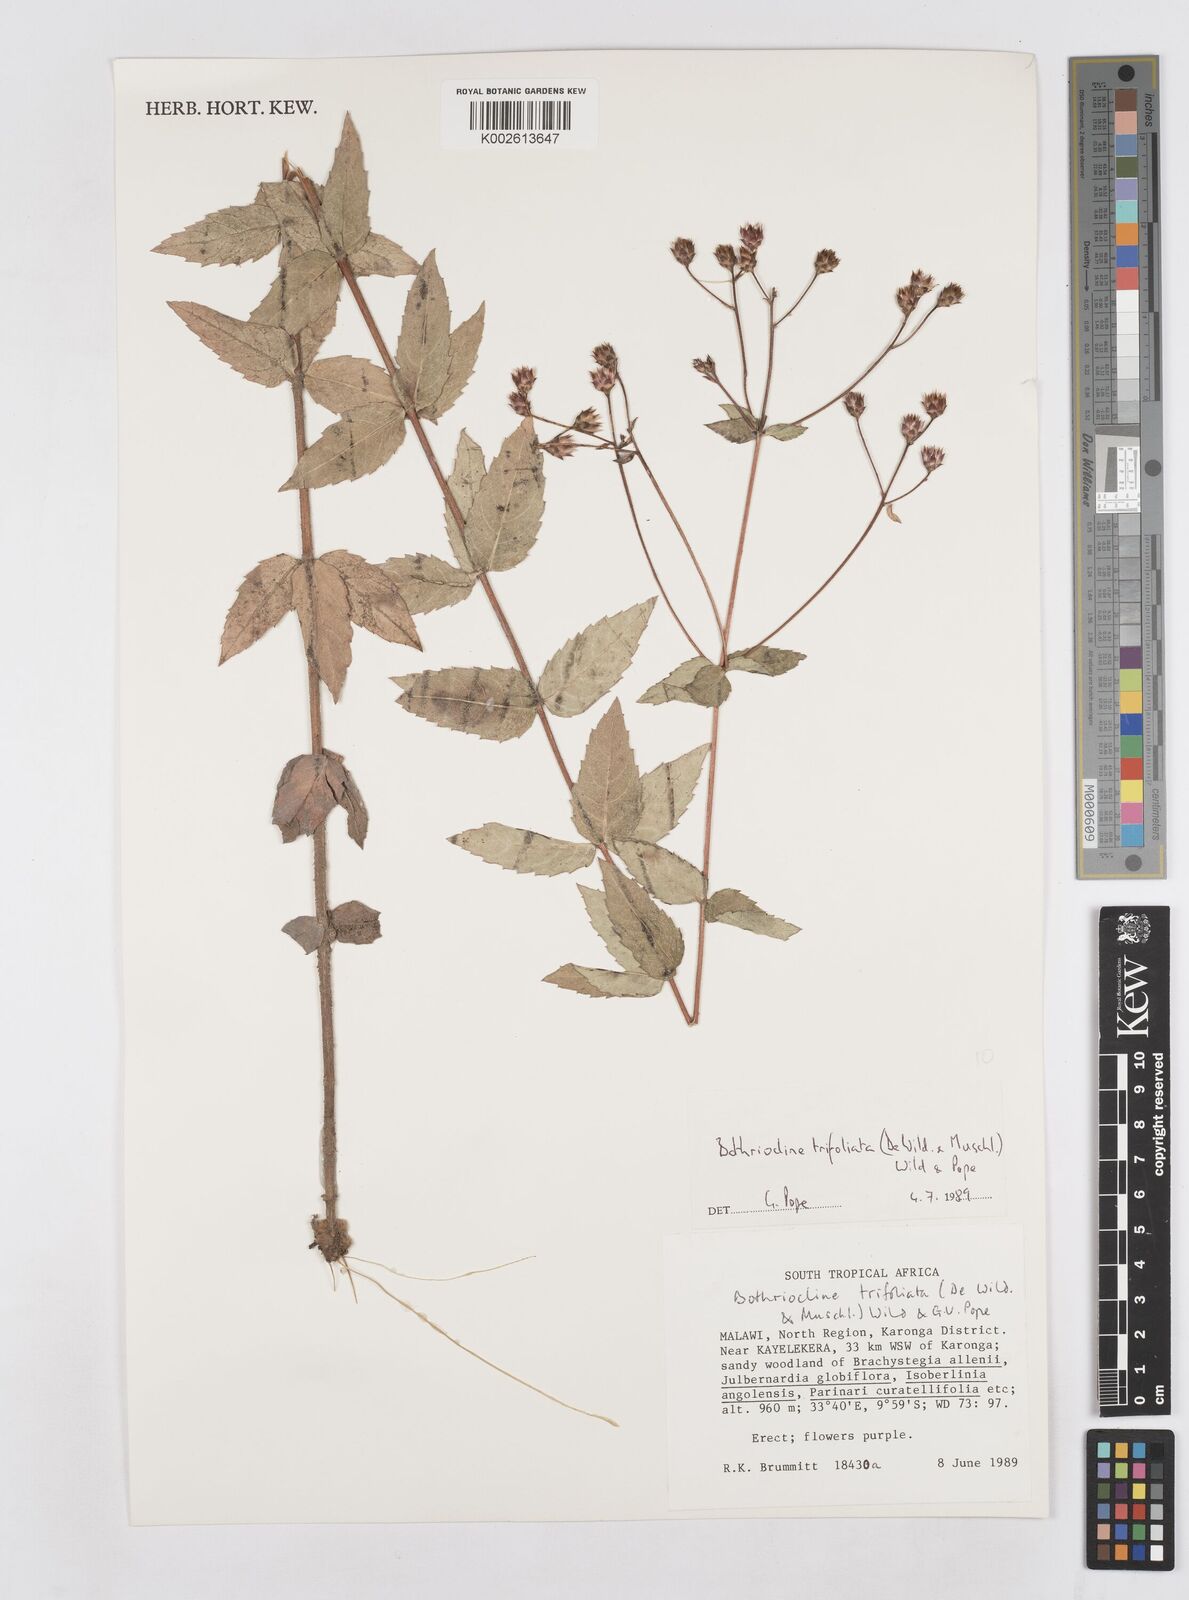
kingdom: Plantae
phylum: Tracheophyta
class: Magnoliopsida
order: Asterales
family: Asteraceae
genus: Bothriocline
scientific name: Bothriocline trifoliata
